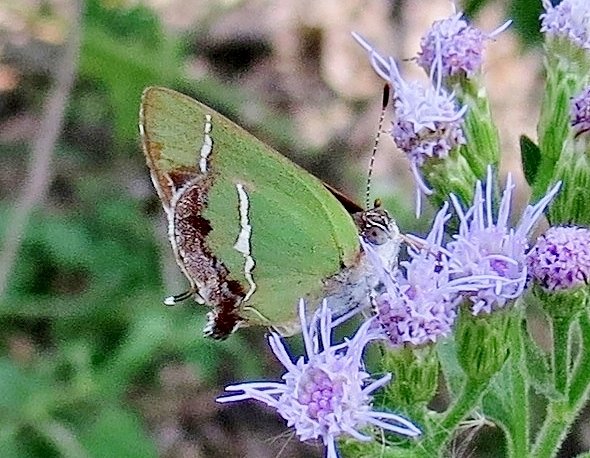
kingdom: Animalia
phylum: Arthropoda
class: Insecta
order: Lepidoptera
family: Lycaenidae
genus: Chlorostrymon
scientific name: Chlorostrymon simaethis
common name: Silver-banded Hairstreak
